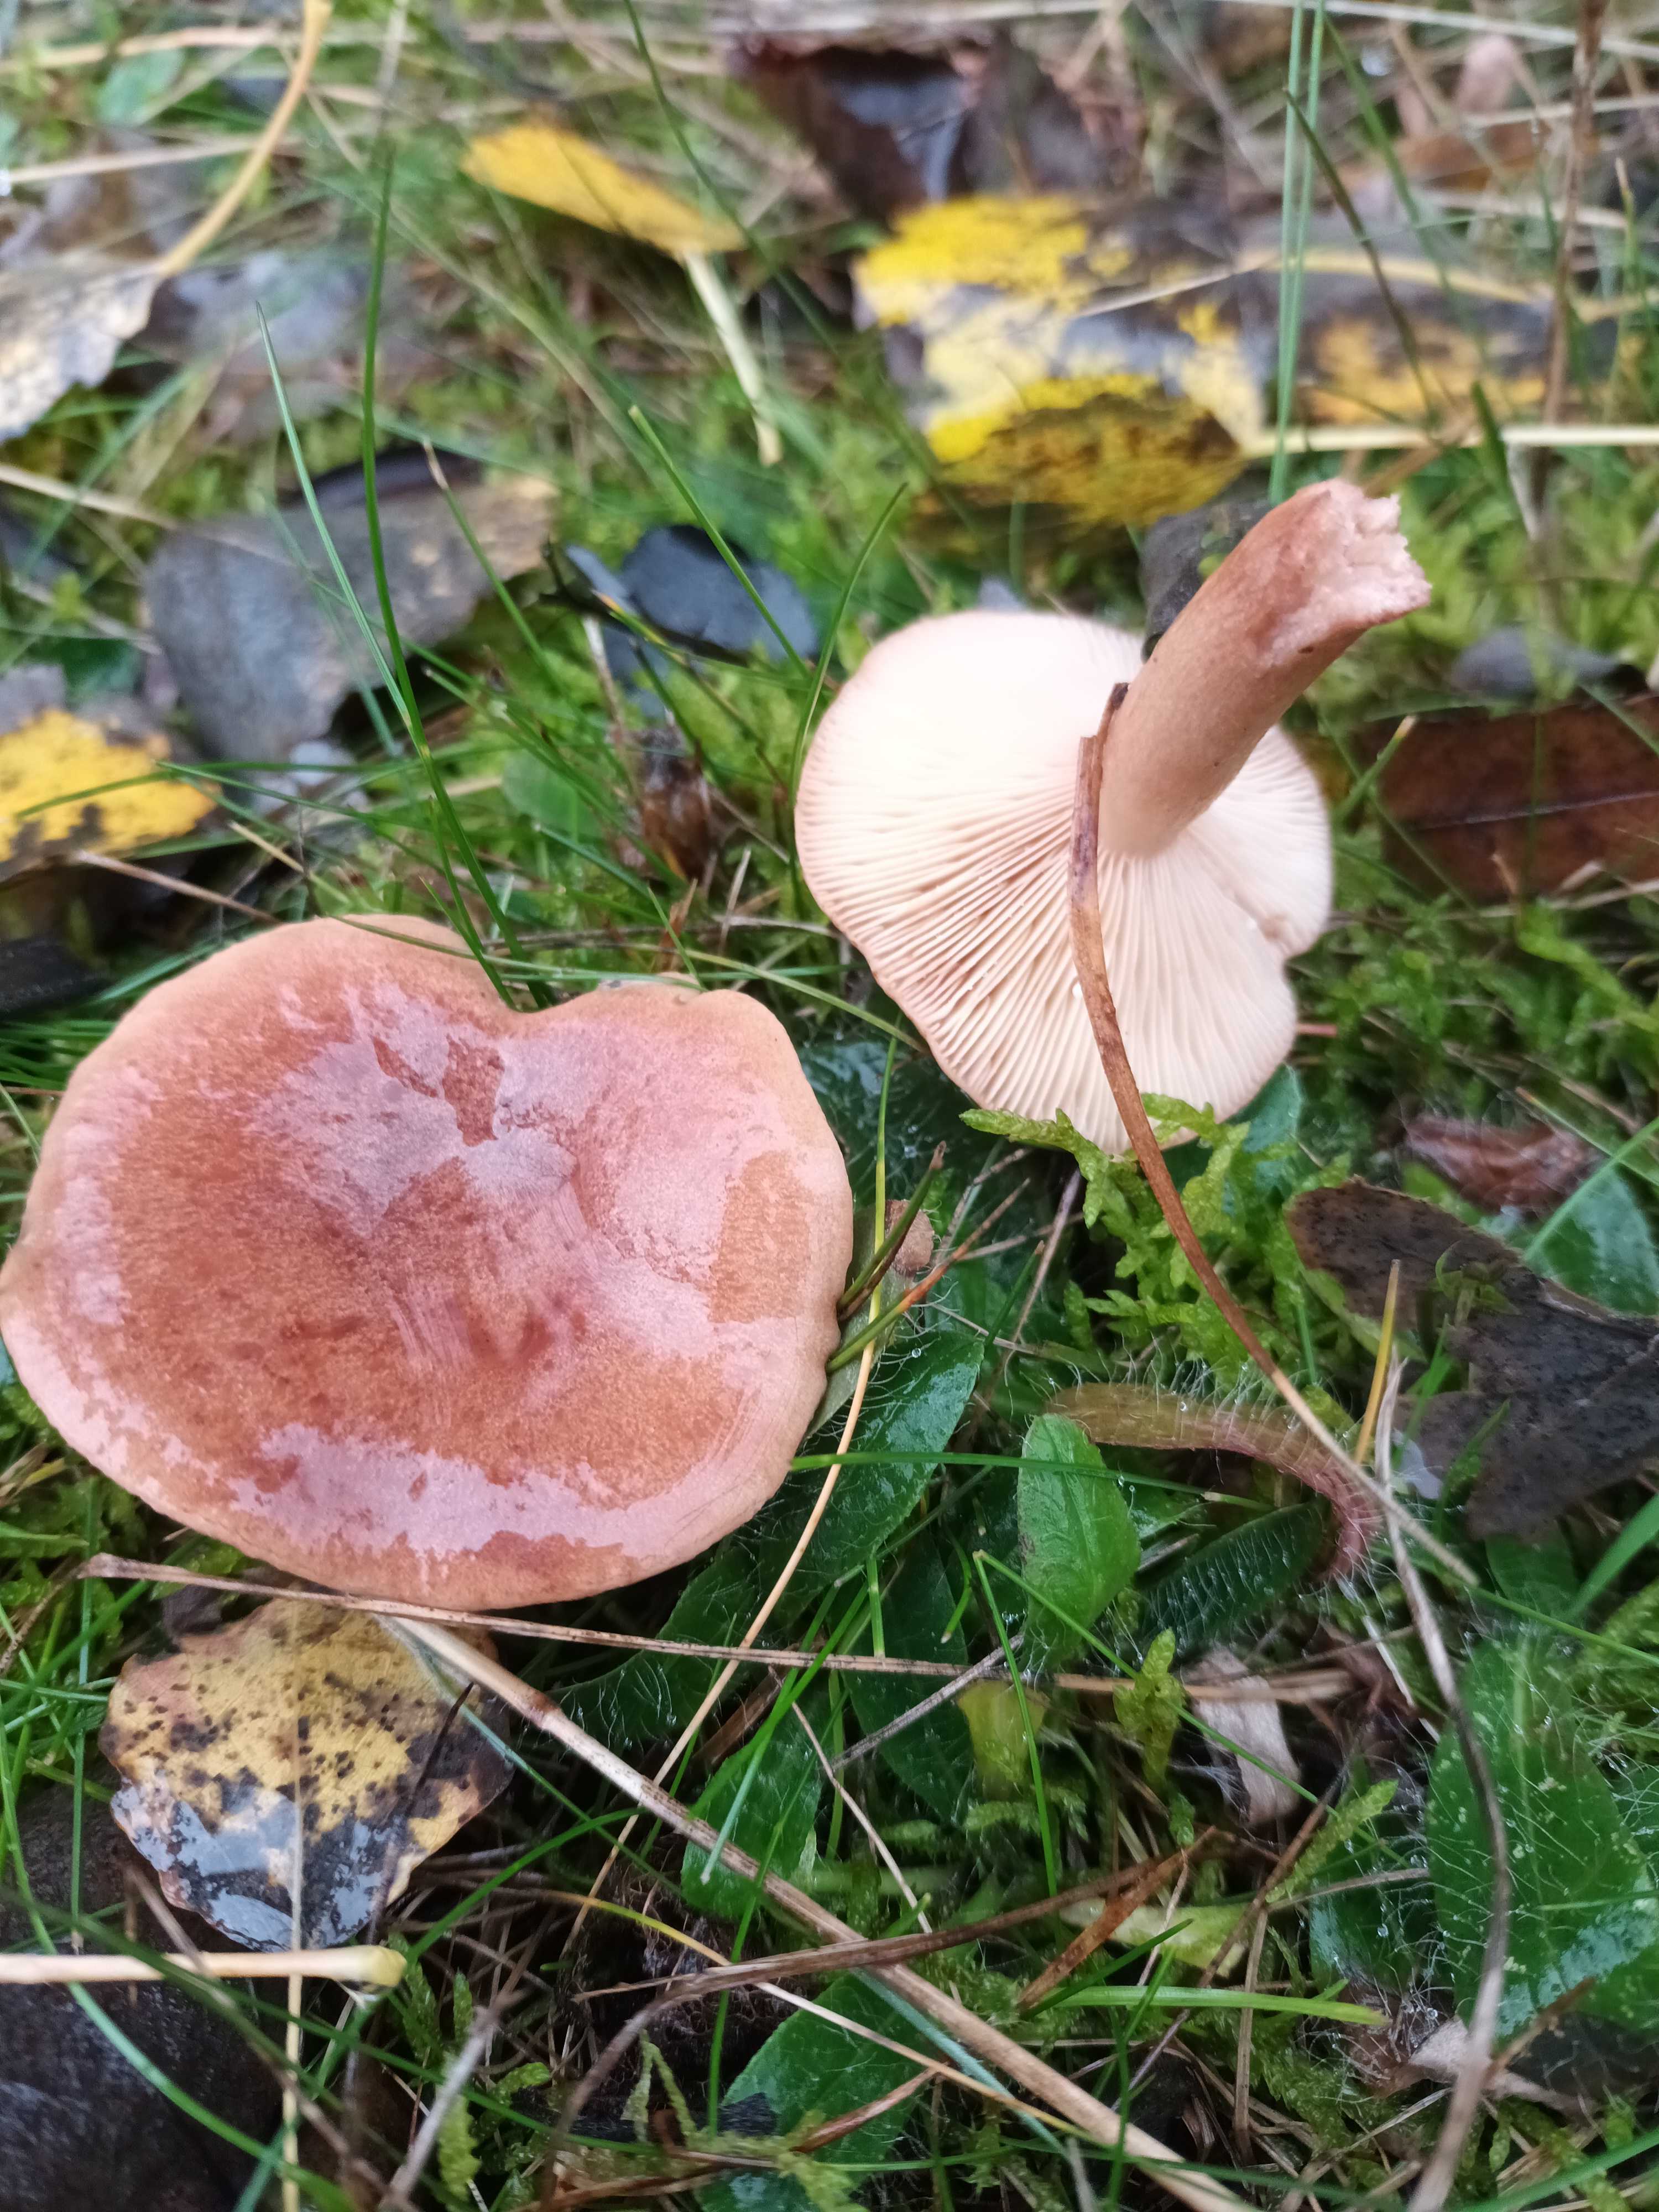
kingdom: Fungi
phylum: Basidiomycota
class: Agaricomycetes
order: Russulales
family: Russulaceae
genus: Lactarius
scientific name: Lactarius quietus
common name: ege-mælkehat
